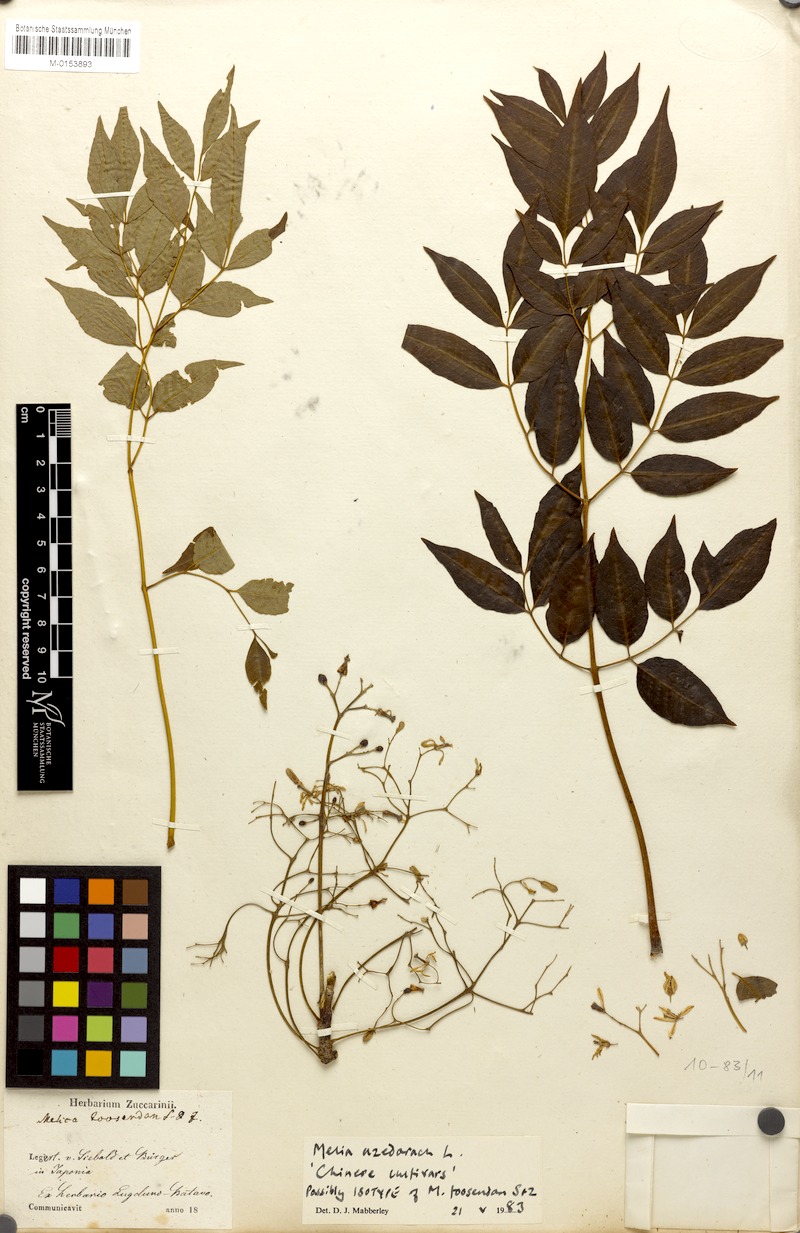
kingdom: Plantae
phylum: Tracheophyta
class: Magnoliopsida
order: Sapindales
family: Meliaceae
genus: Melia
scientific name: Melia azedarach
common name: Chinaberrytree
